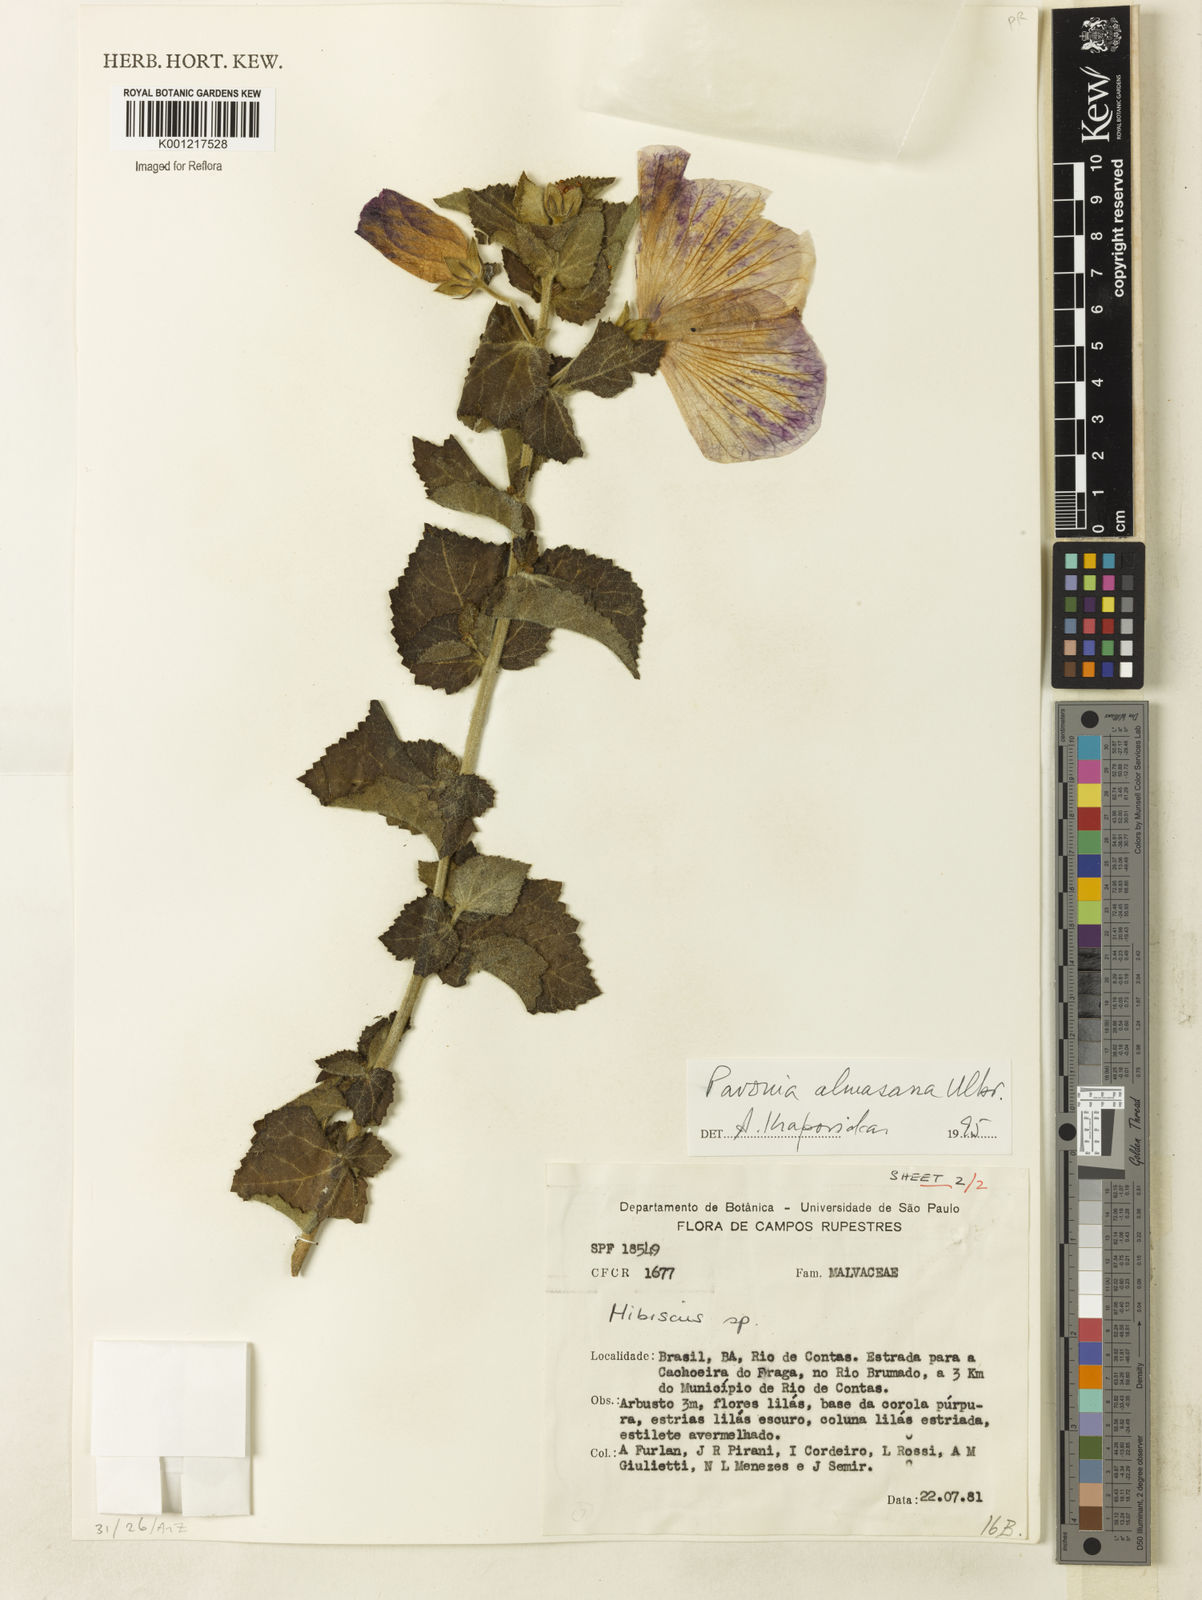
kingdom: Plantae
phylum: Tracheophyta
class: Magnoliopsida
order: Malvales
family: Malvaceae
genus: Pavonia
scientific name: Pavonia almasana
